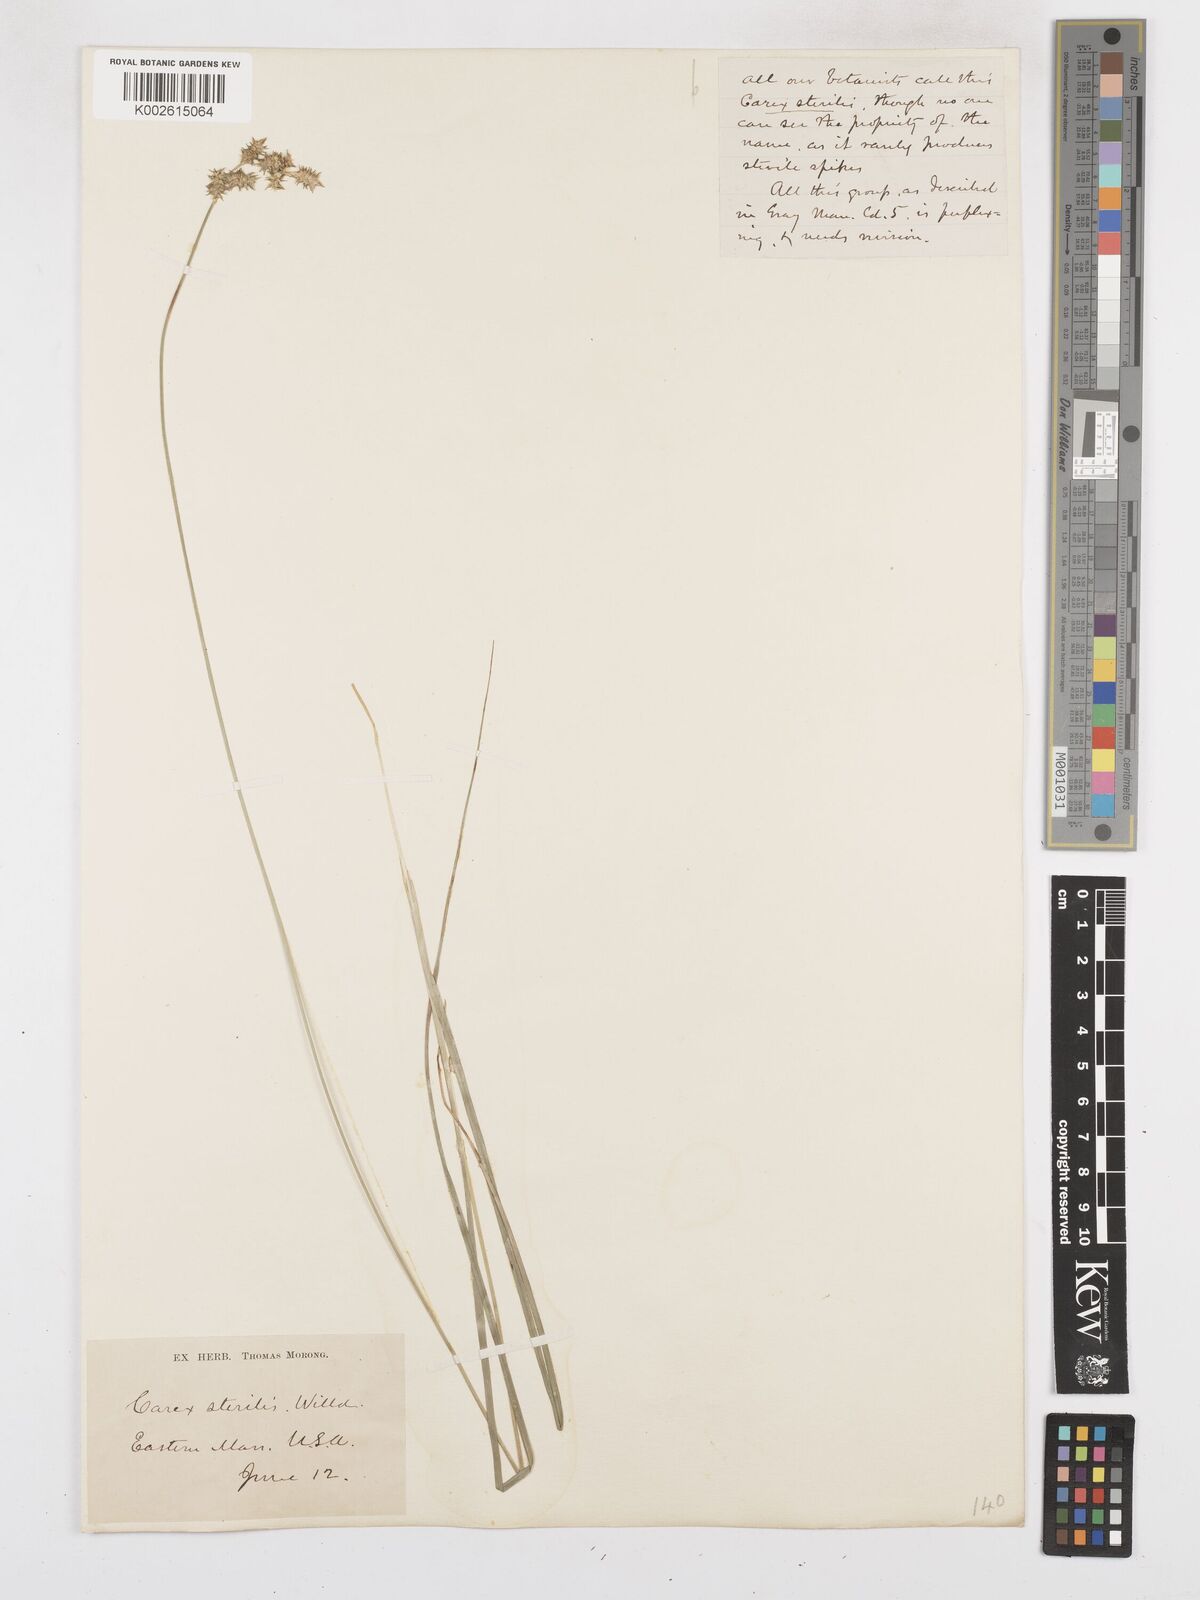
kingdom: Plantae
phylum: Tracheophyta
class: Liliopsida
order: Poales
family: Cyperaceae
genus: Carex
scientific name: Carex sterilis
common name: Dioecious sedge
